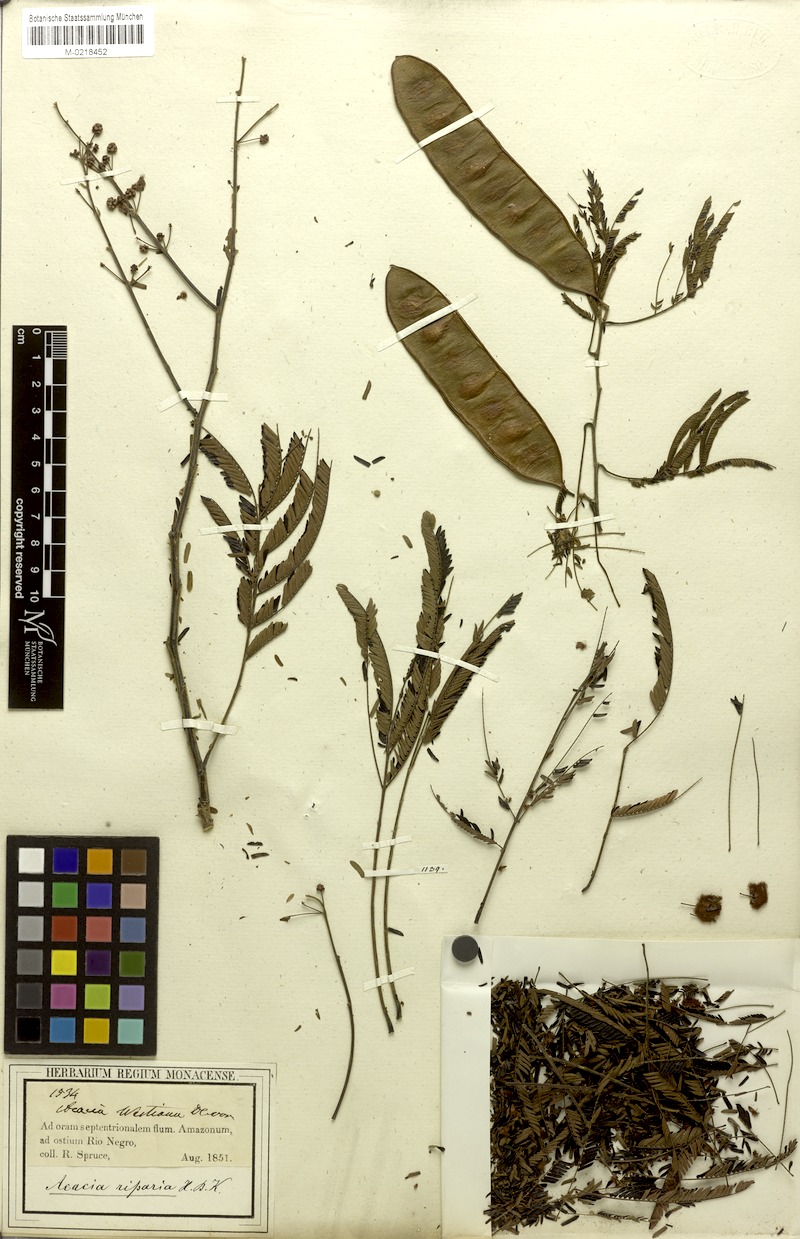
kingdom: Plantae
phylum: Tracheophyta
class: Magnoliopsida
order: Fabales
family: Fabaceae
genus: Senegalia
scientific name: Senegalia riparia
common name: Catch-and-keep
